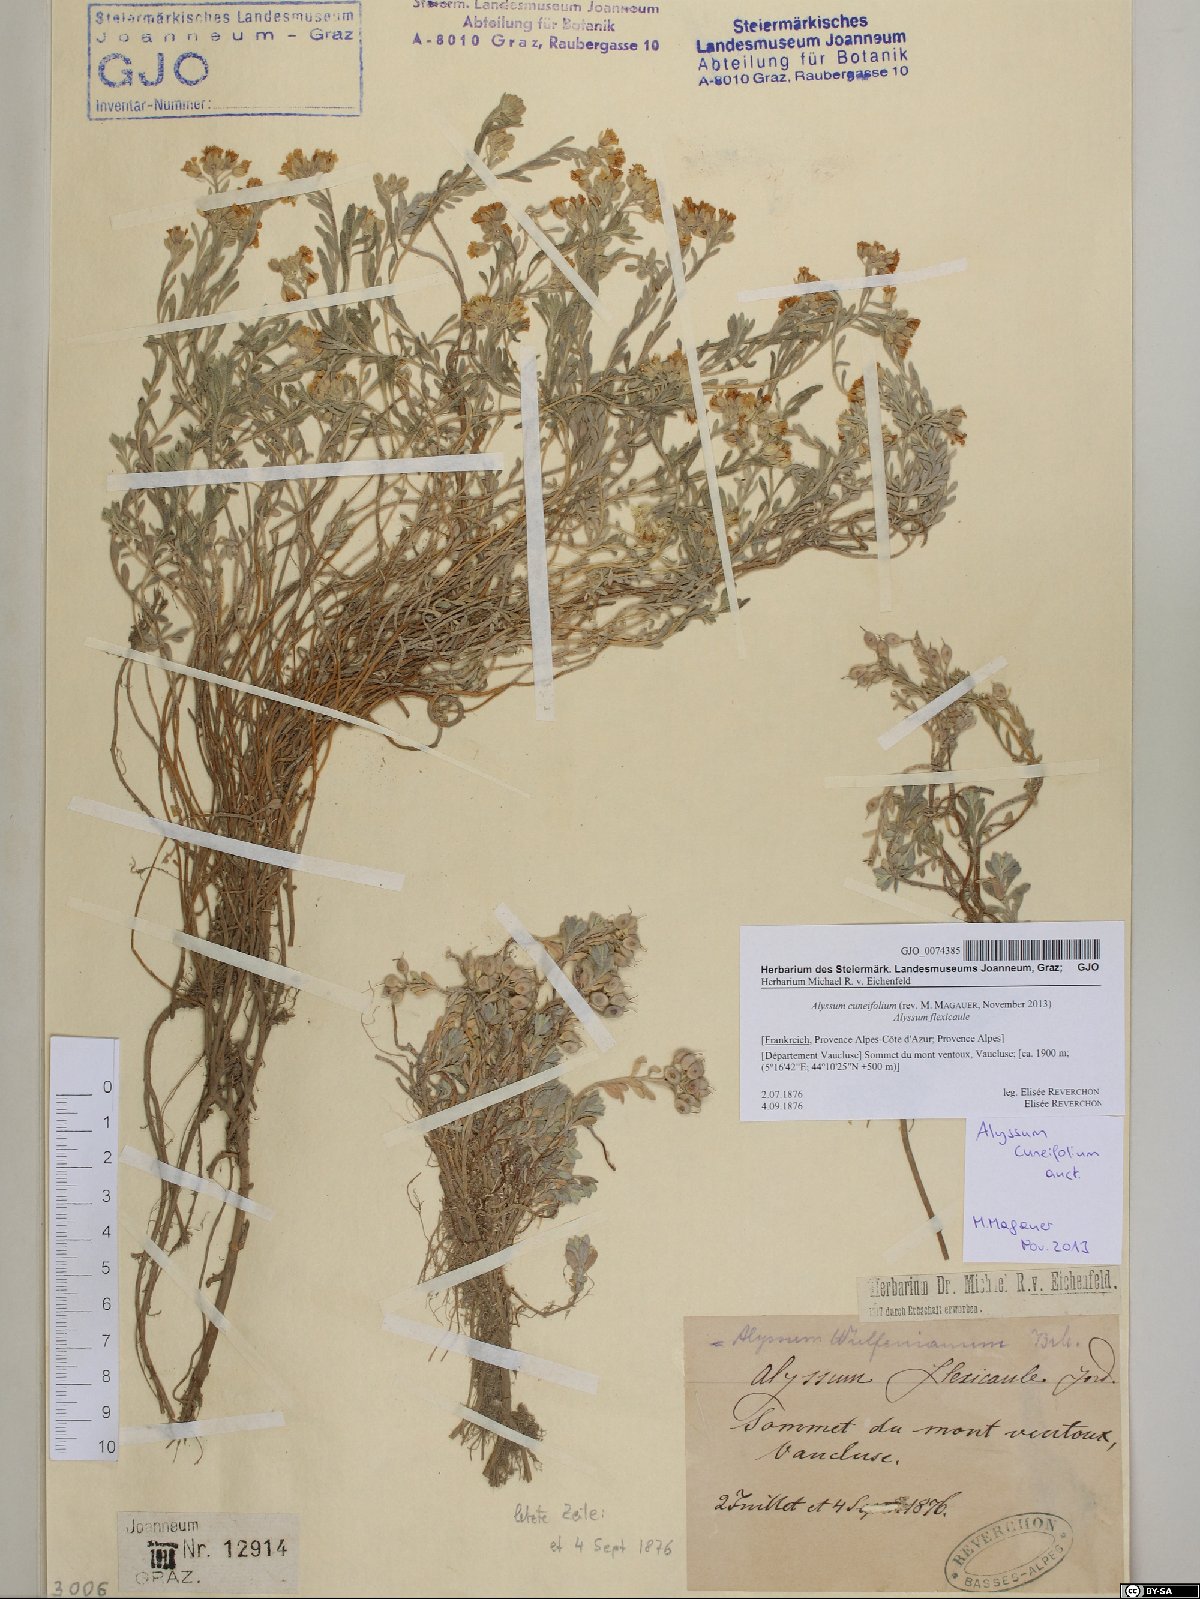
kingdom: Plantae
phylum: Tracheophyta
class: Magnoliopsida
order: Brassicales
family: Brassicaceae
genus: Alyssum
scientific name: Alyssum cuneifolium
